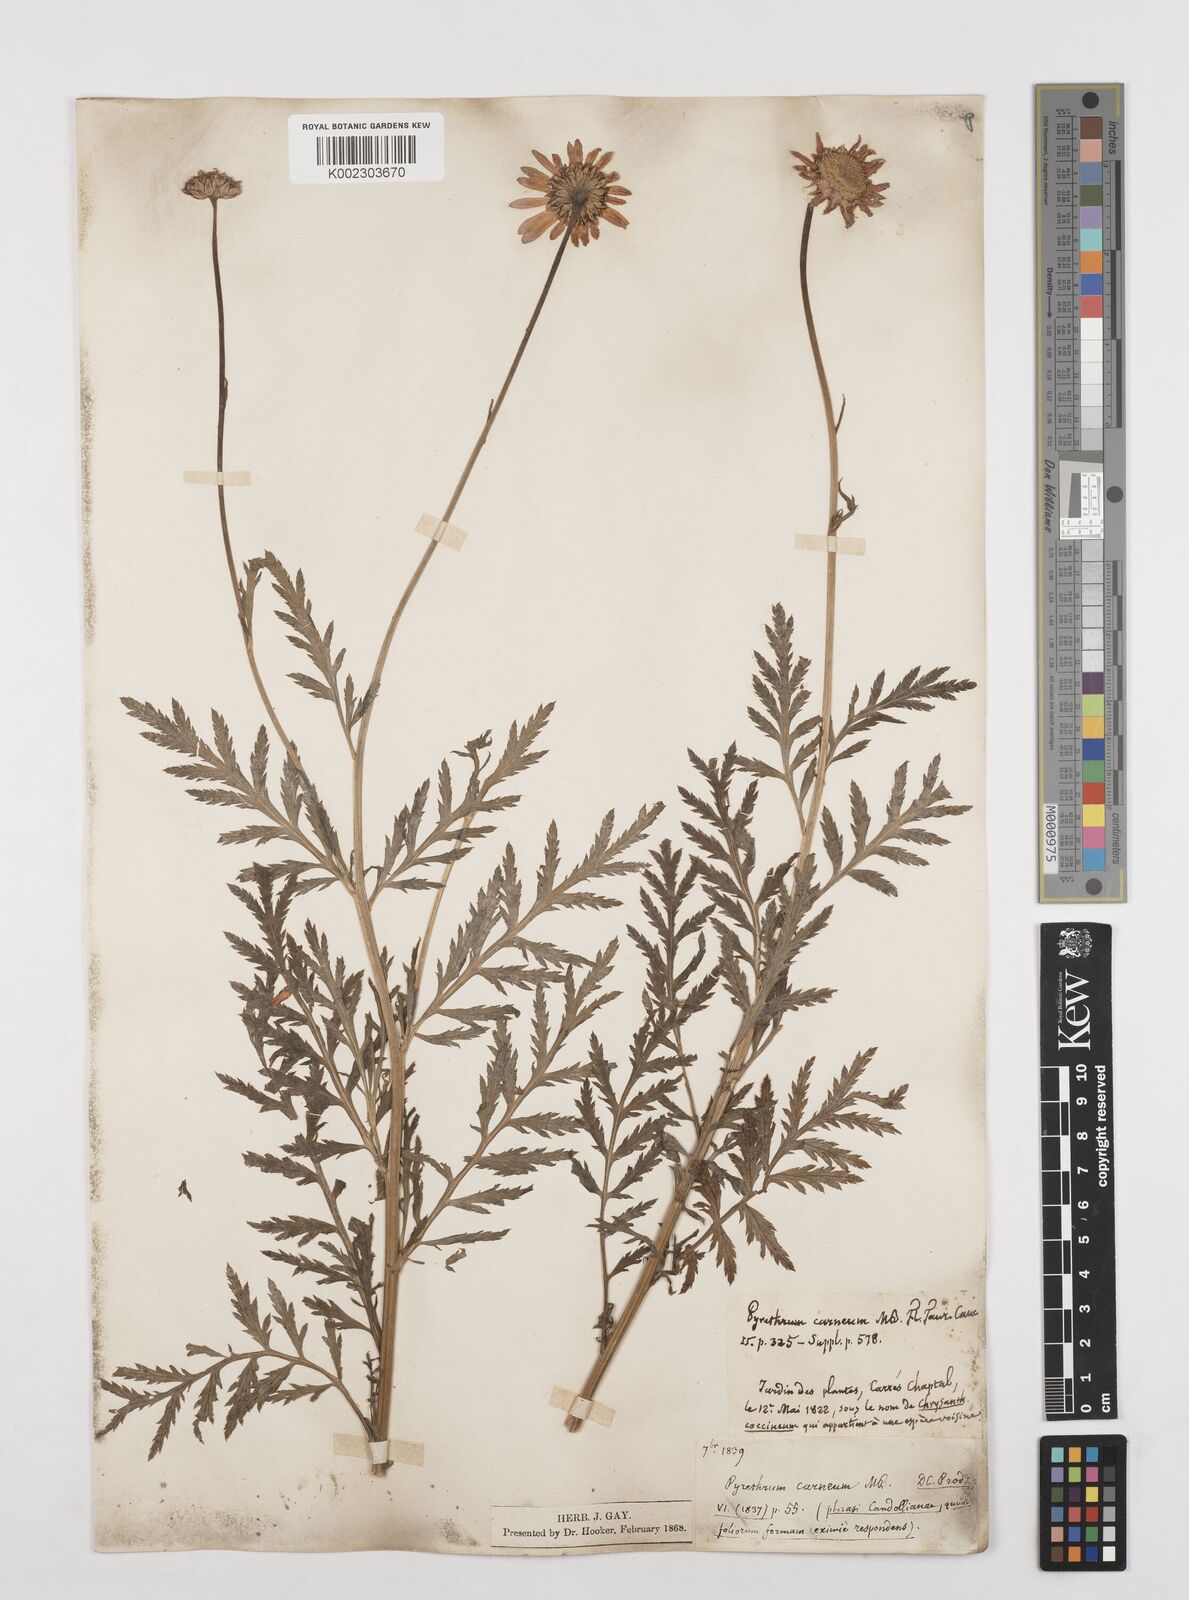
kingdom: Plantae
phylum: Tracheophyta
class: Magnoliopsida
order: Asterales
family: Asteraceae
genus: Tanacetum
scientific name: Tanacetum coccineum
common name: Pyrethum daisy
